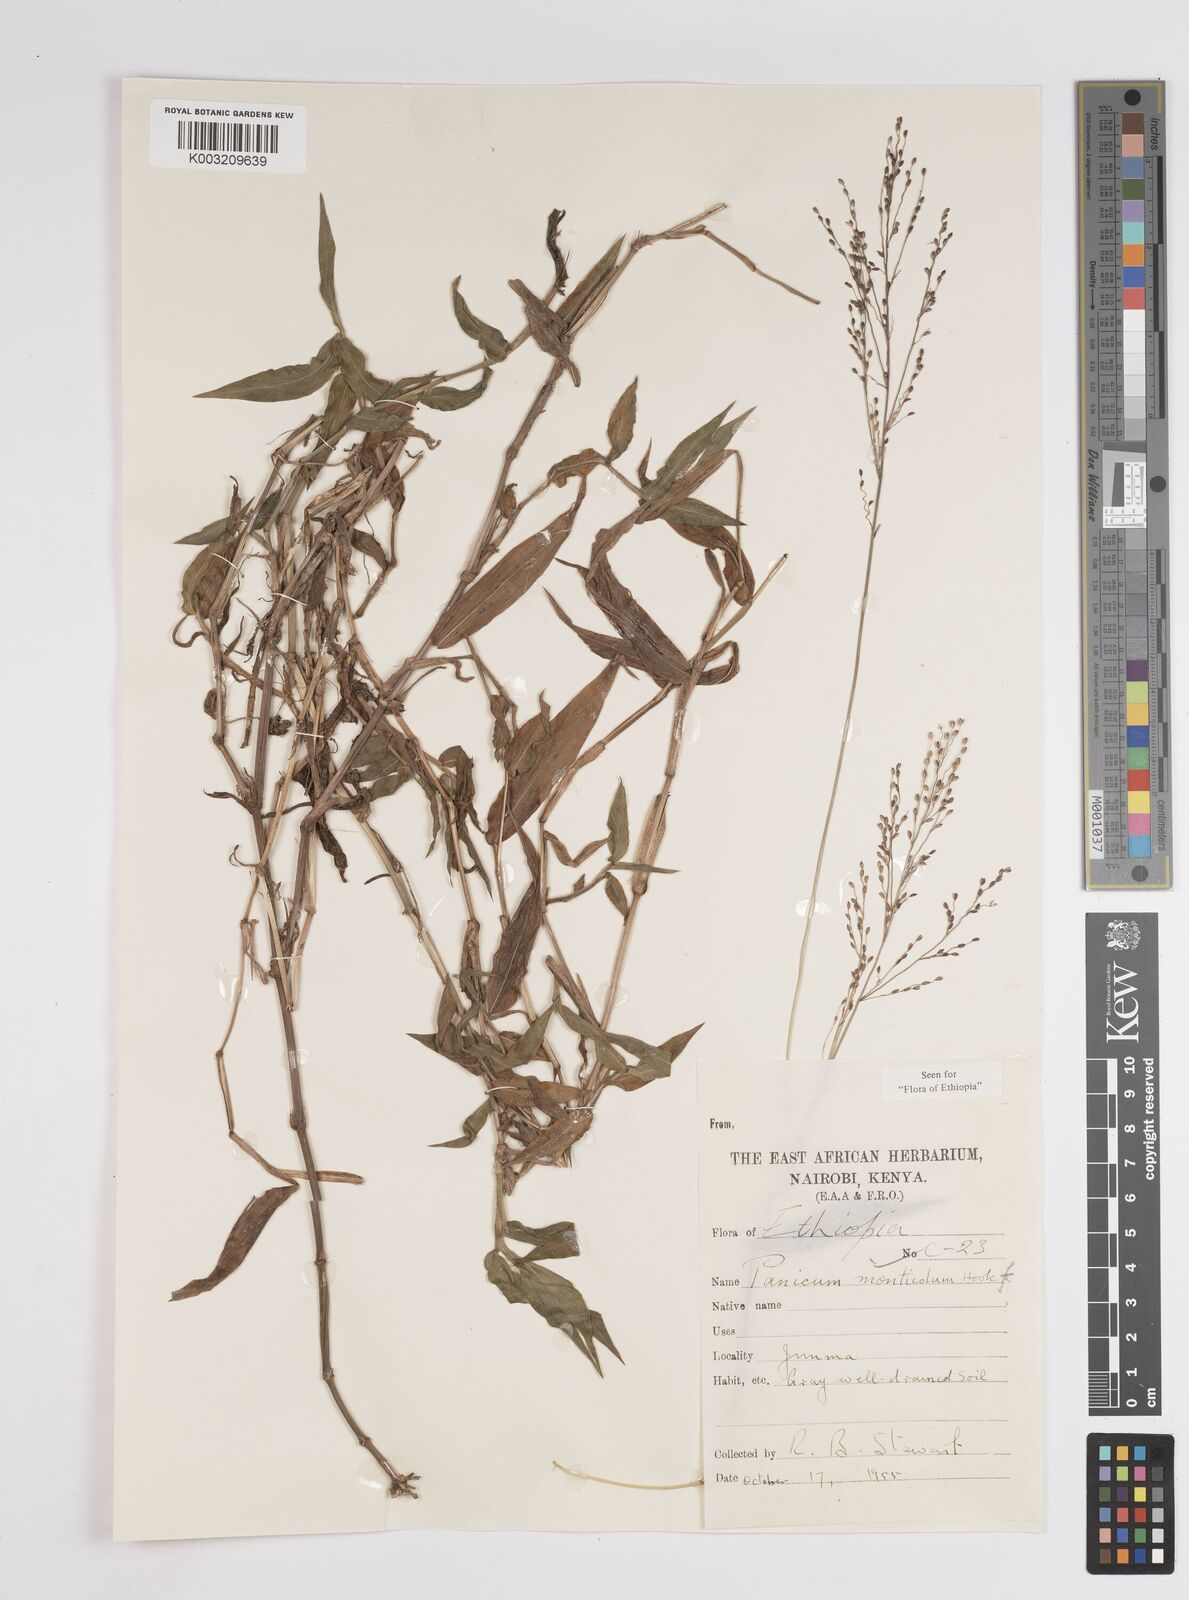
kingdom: Plantae
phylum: Tracheophyta
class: Liliopsida
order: Poales
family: Poaceae
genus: Panicum
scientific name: Panicum monticola
